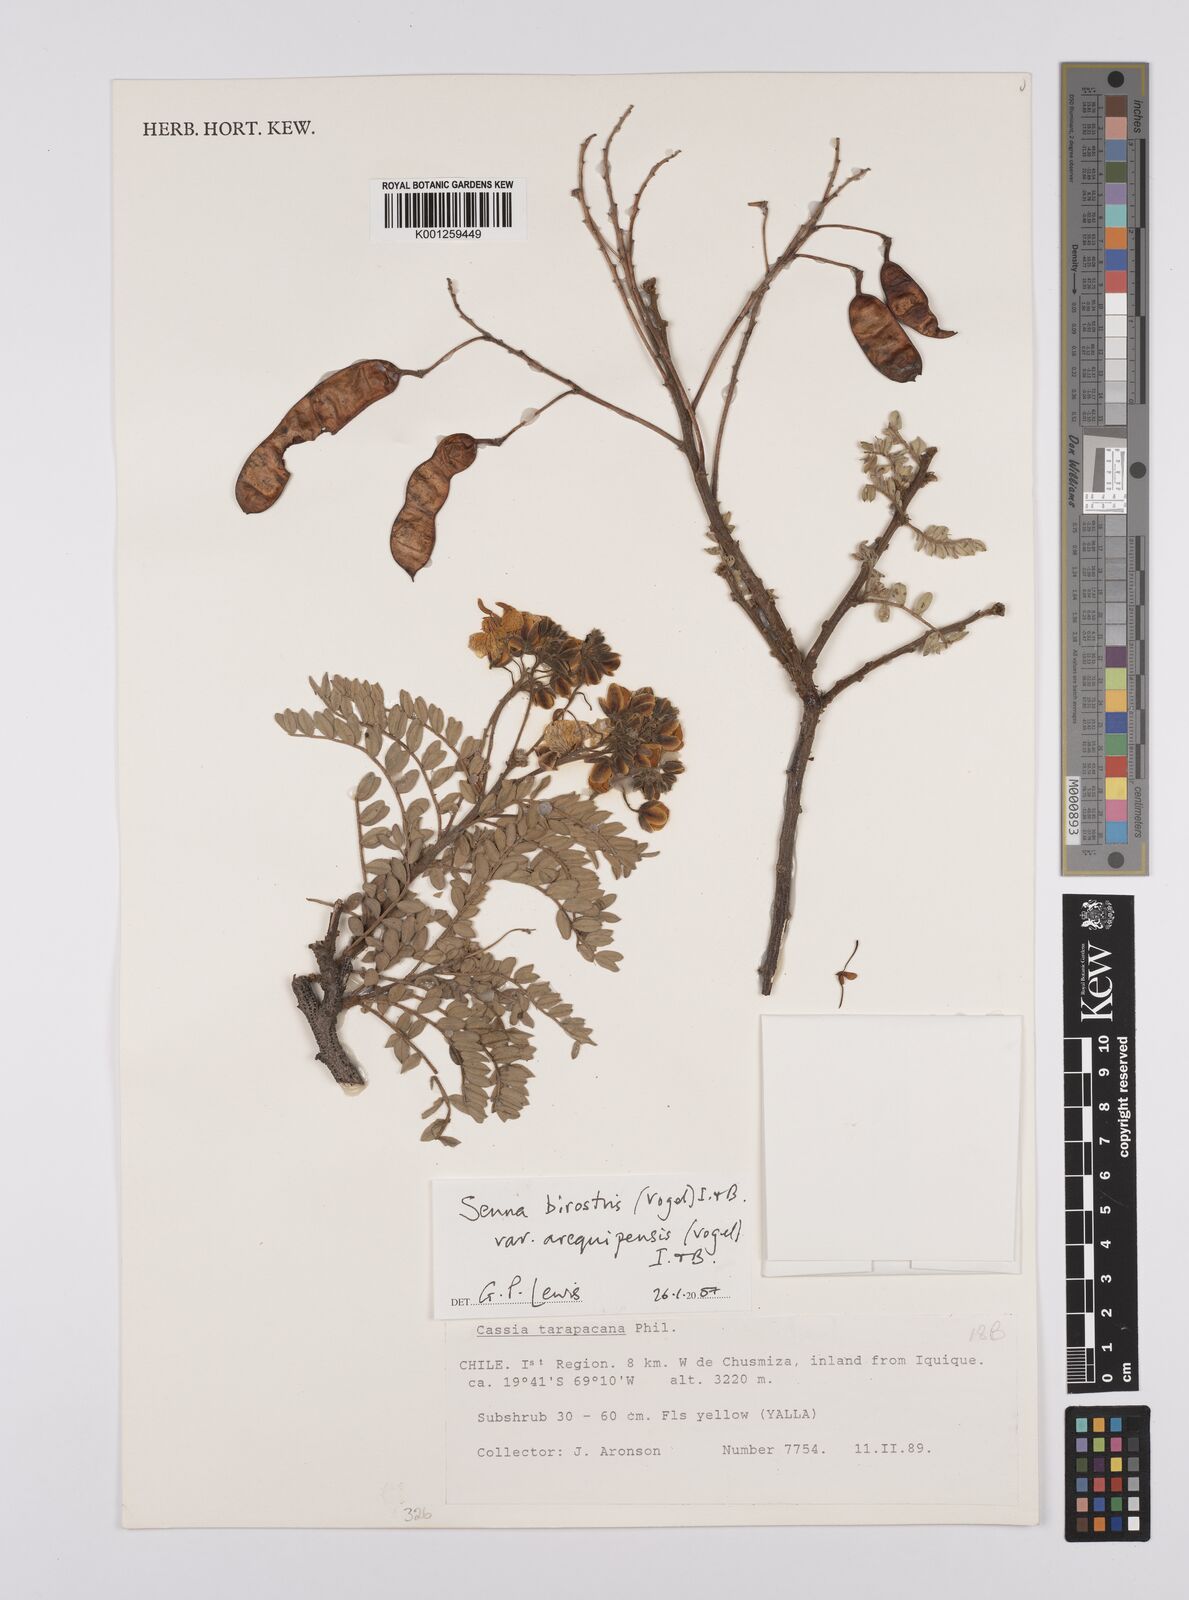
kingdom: Plantae
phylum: Tracheophyta
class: Magnoliopsida
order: Fabales
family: Fabaceae
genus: Senna
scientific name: Senna birostris
